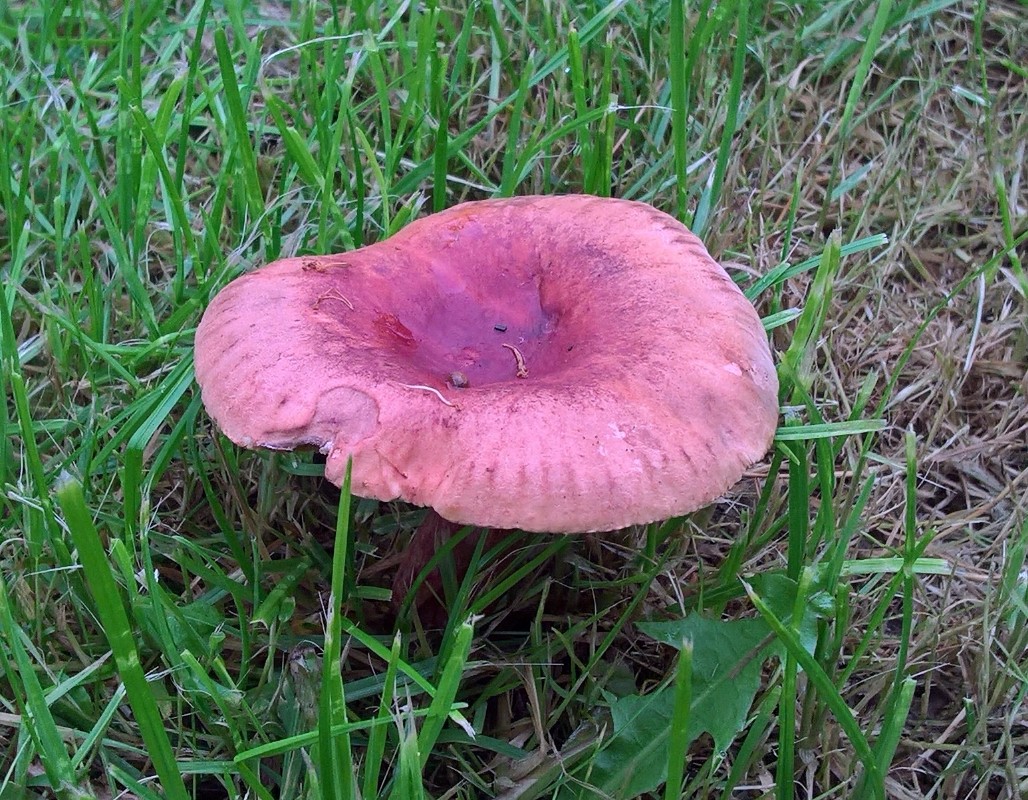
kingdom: Fungi
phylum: Basidiomycota
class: Agaricomycetes
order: Russulales
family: Russulaceae
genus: Lactarius
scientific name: Lactarius fulvissimus
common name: ræve-mælkehat
